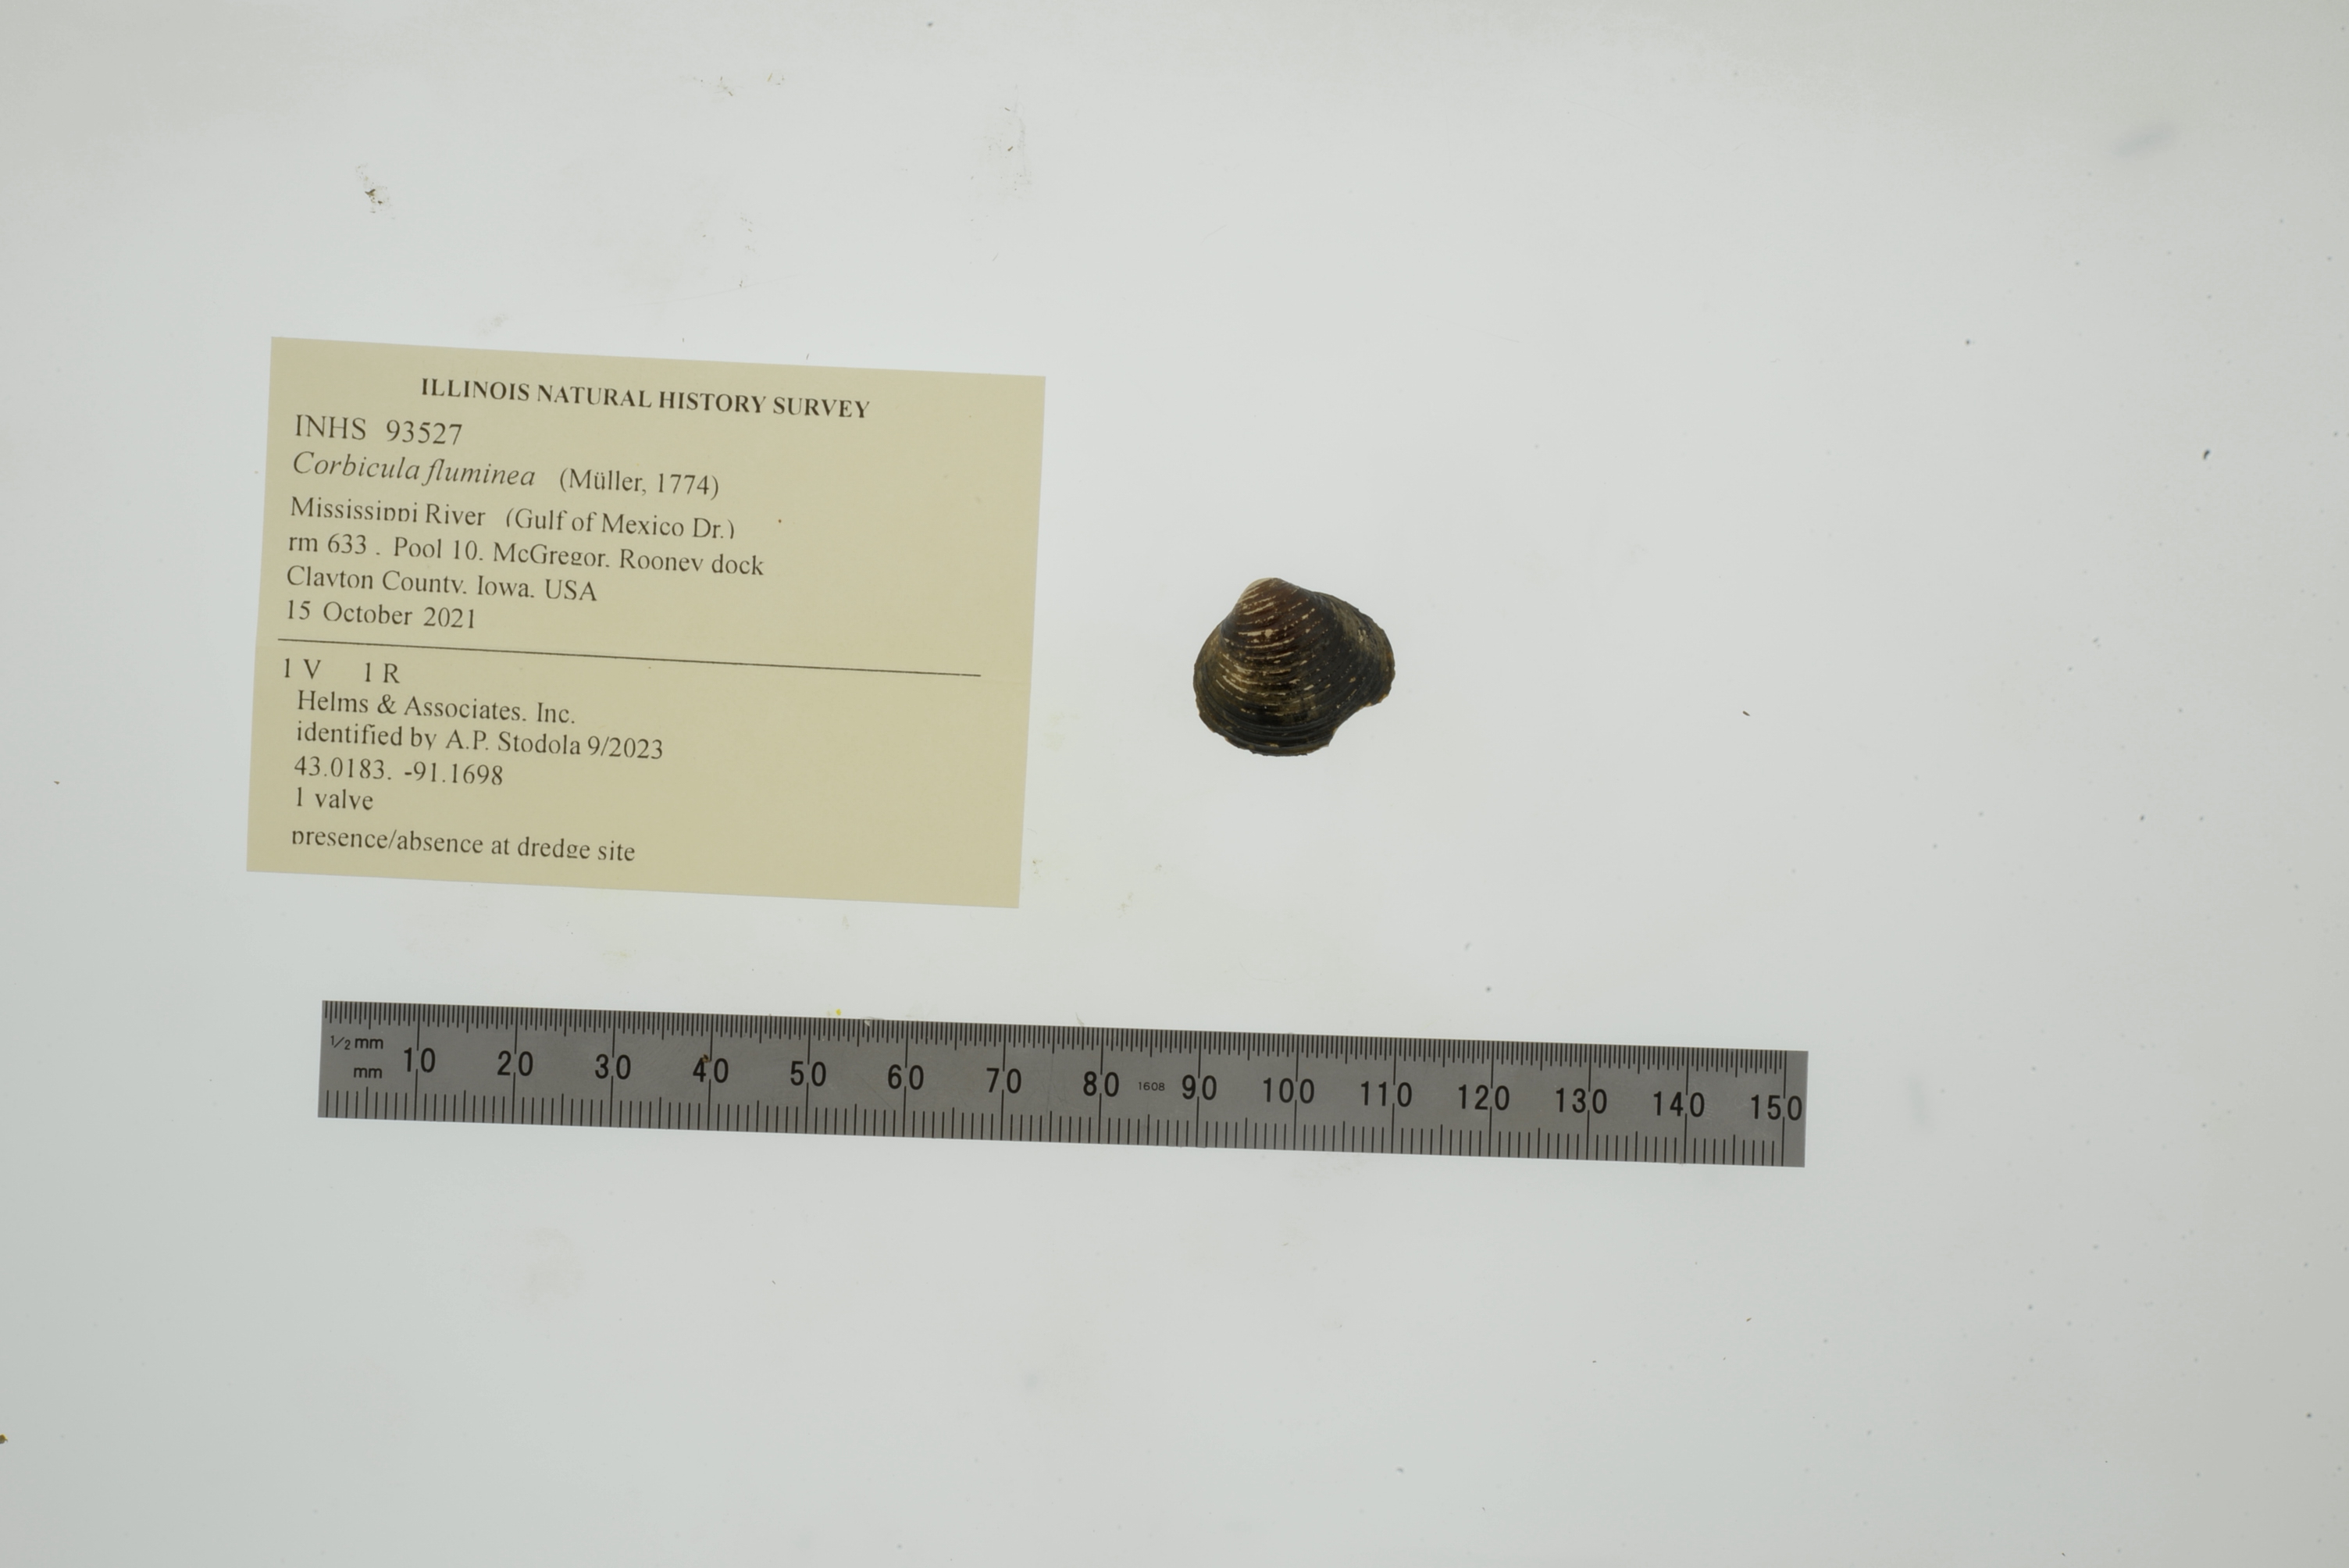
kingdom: Animalia
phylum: Mollusca
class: Bivalvia
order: Venerida
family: Cyrenidae
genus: Corbicula
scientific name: Corbicula fluminea
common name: Asian clam
